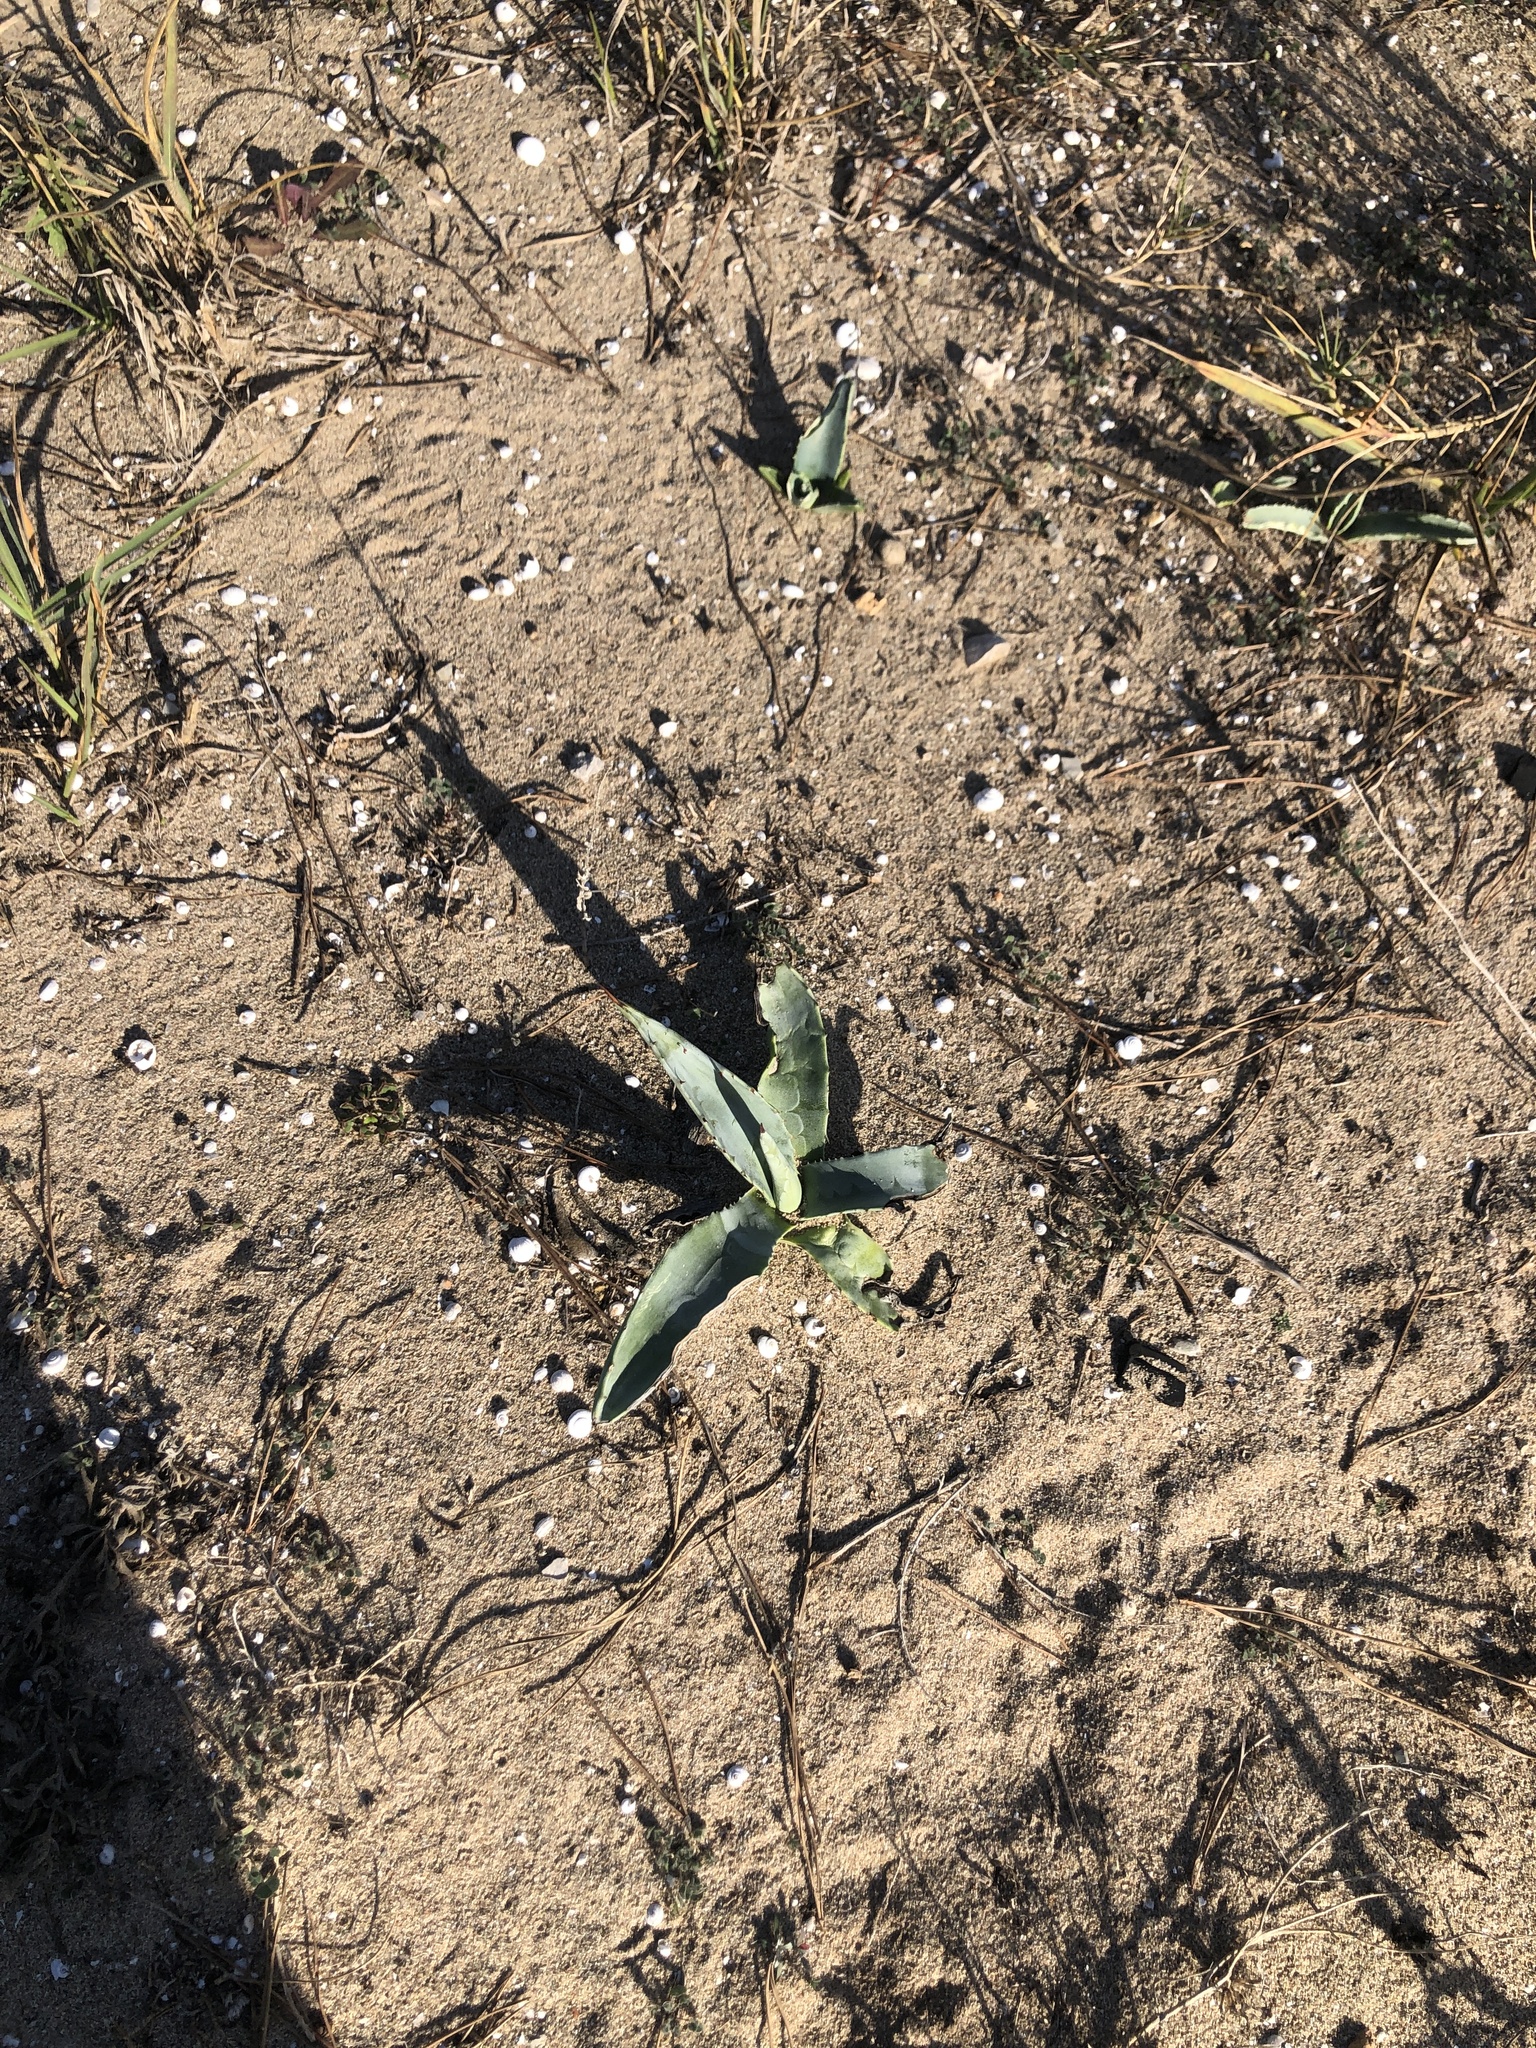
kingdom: Plantae
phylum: Tracheophyta
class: Liliopsida
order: Asparagales
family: Asparagaceae
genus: Agave
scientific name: Agave americana
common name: Centuryplant
